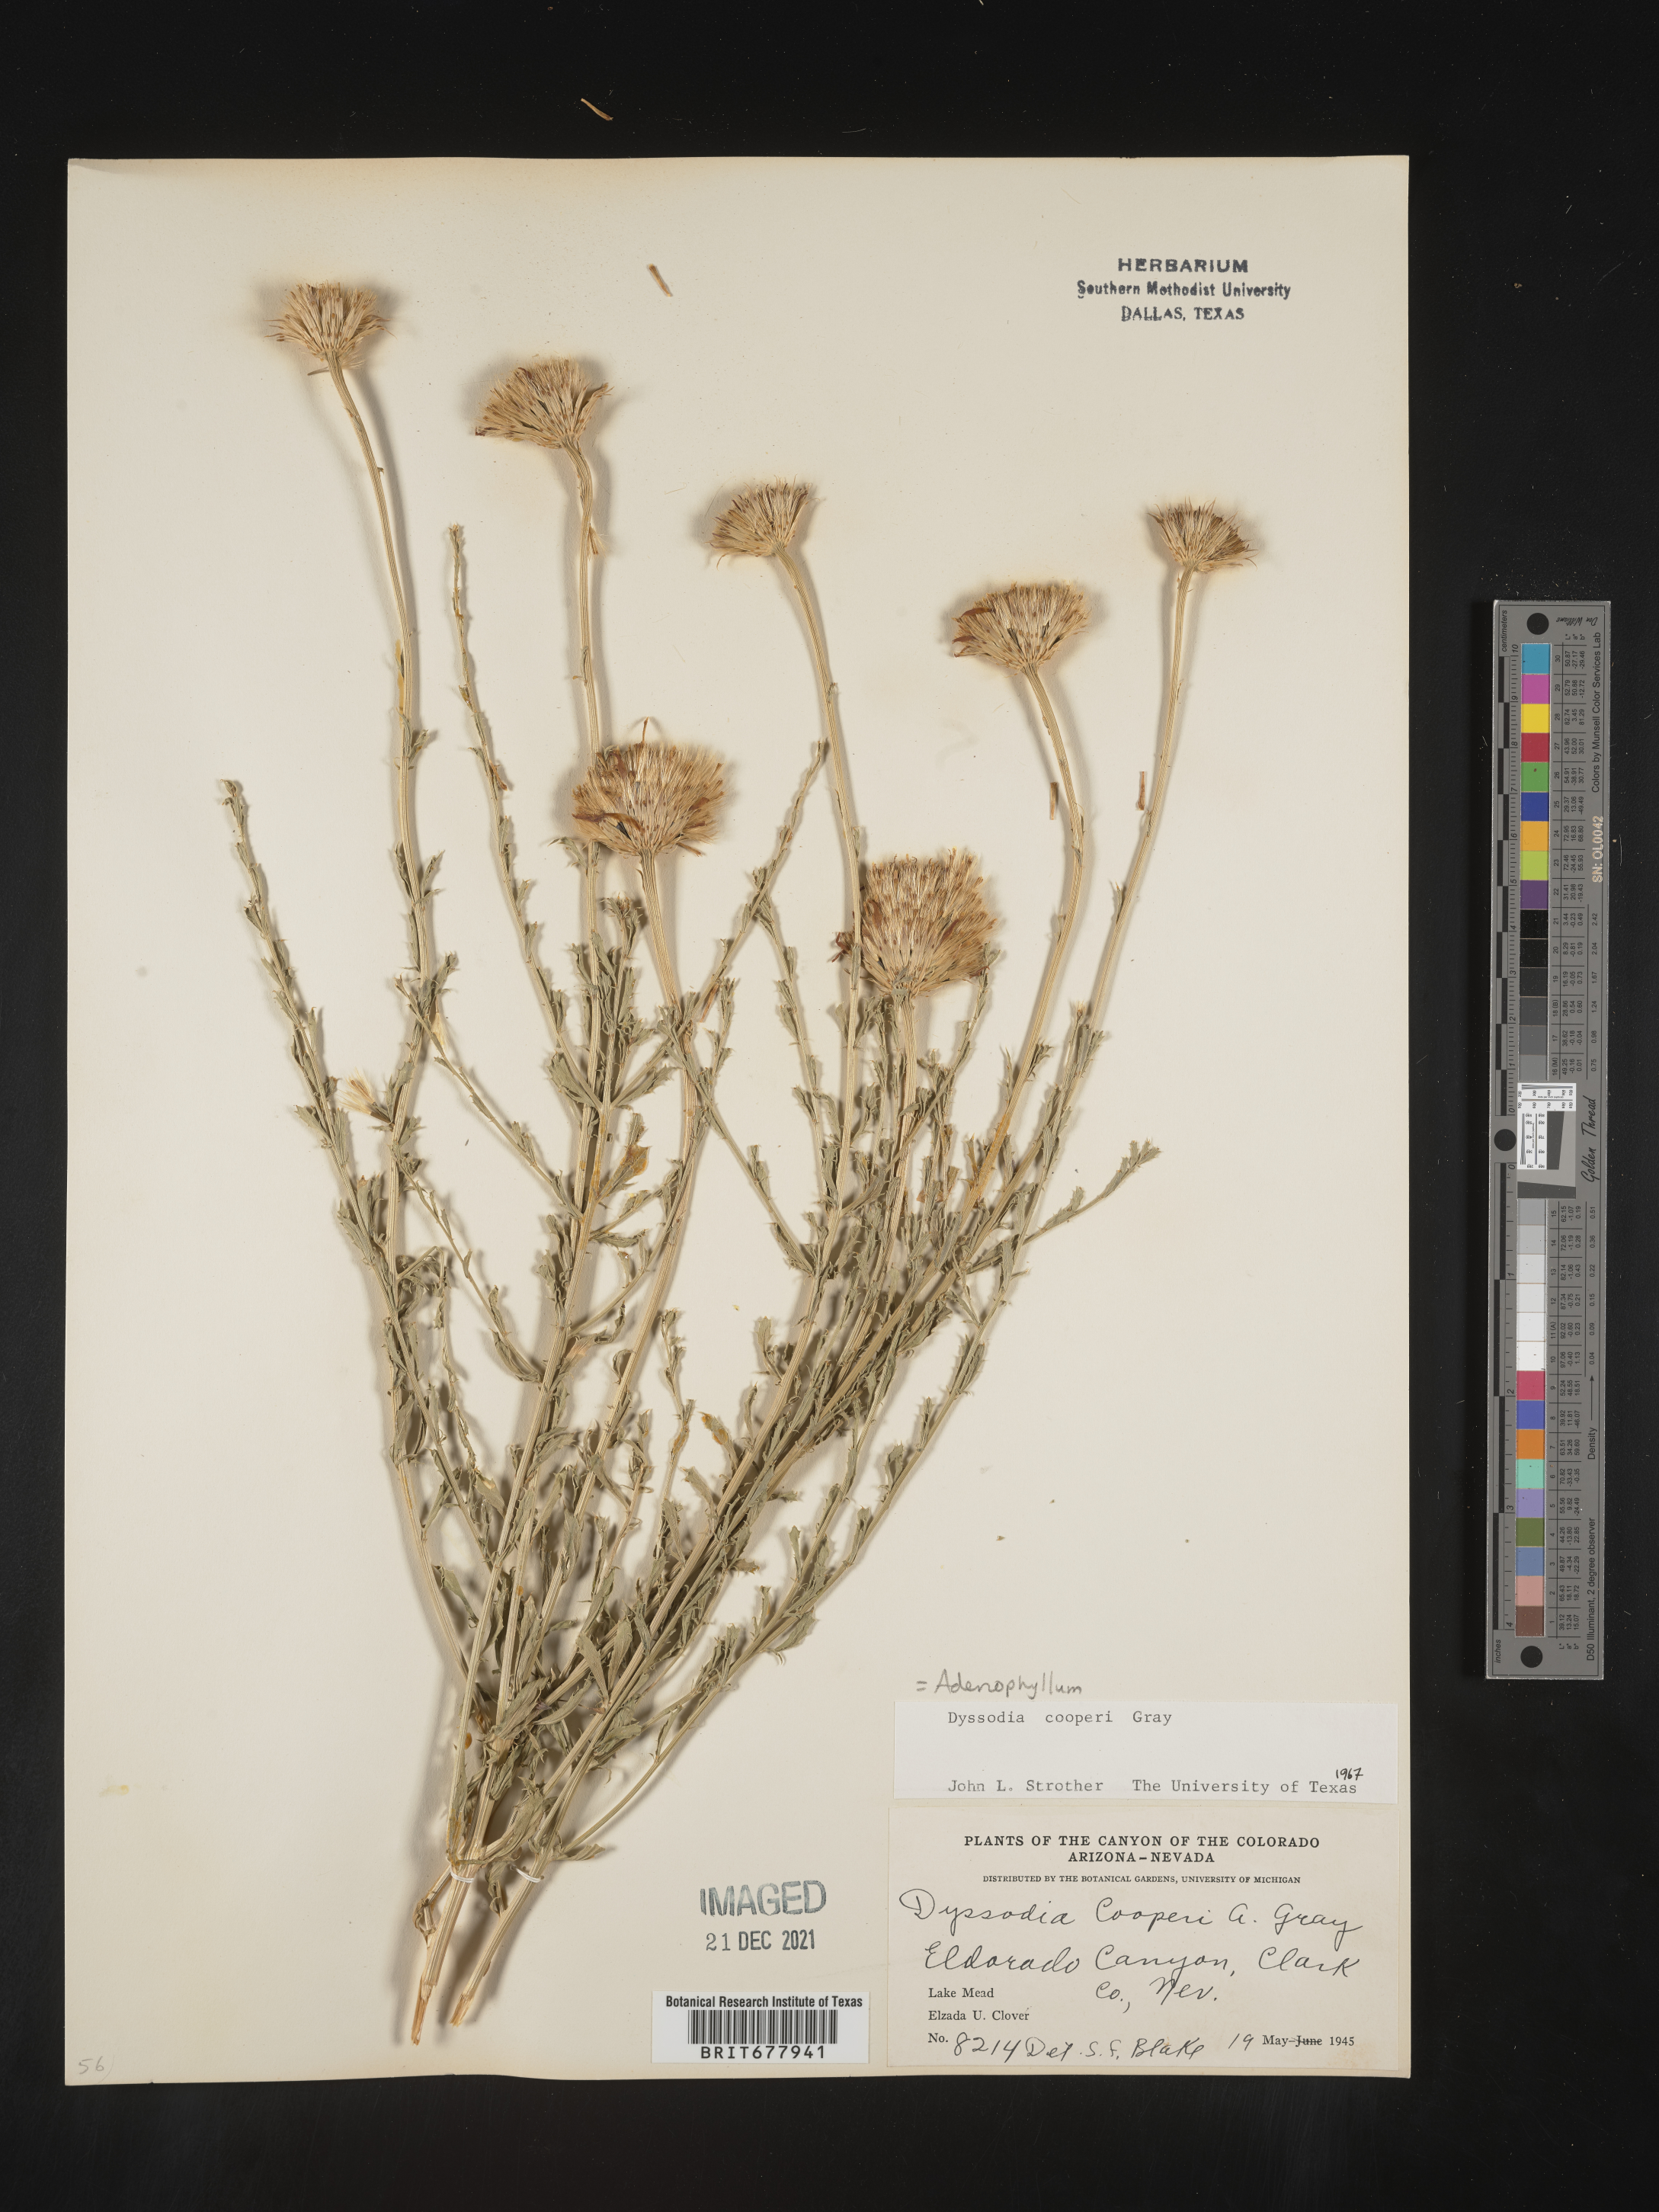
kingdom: Plantae
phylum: Tracheophyta
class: Magnoliopsida
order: Asterales
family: Asteraceae
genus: Adenophyllum
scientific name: Adenophyllum
